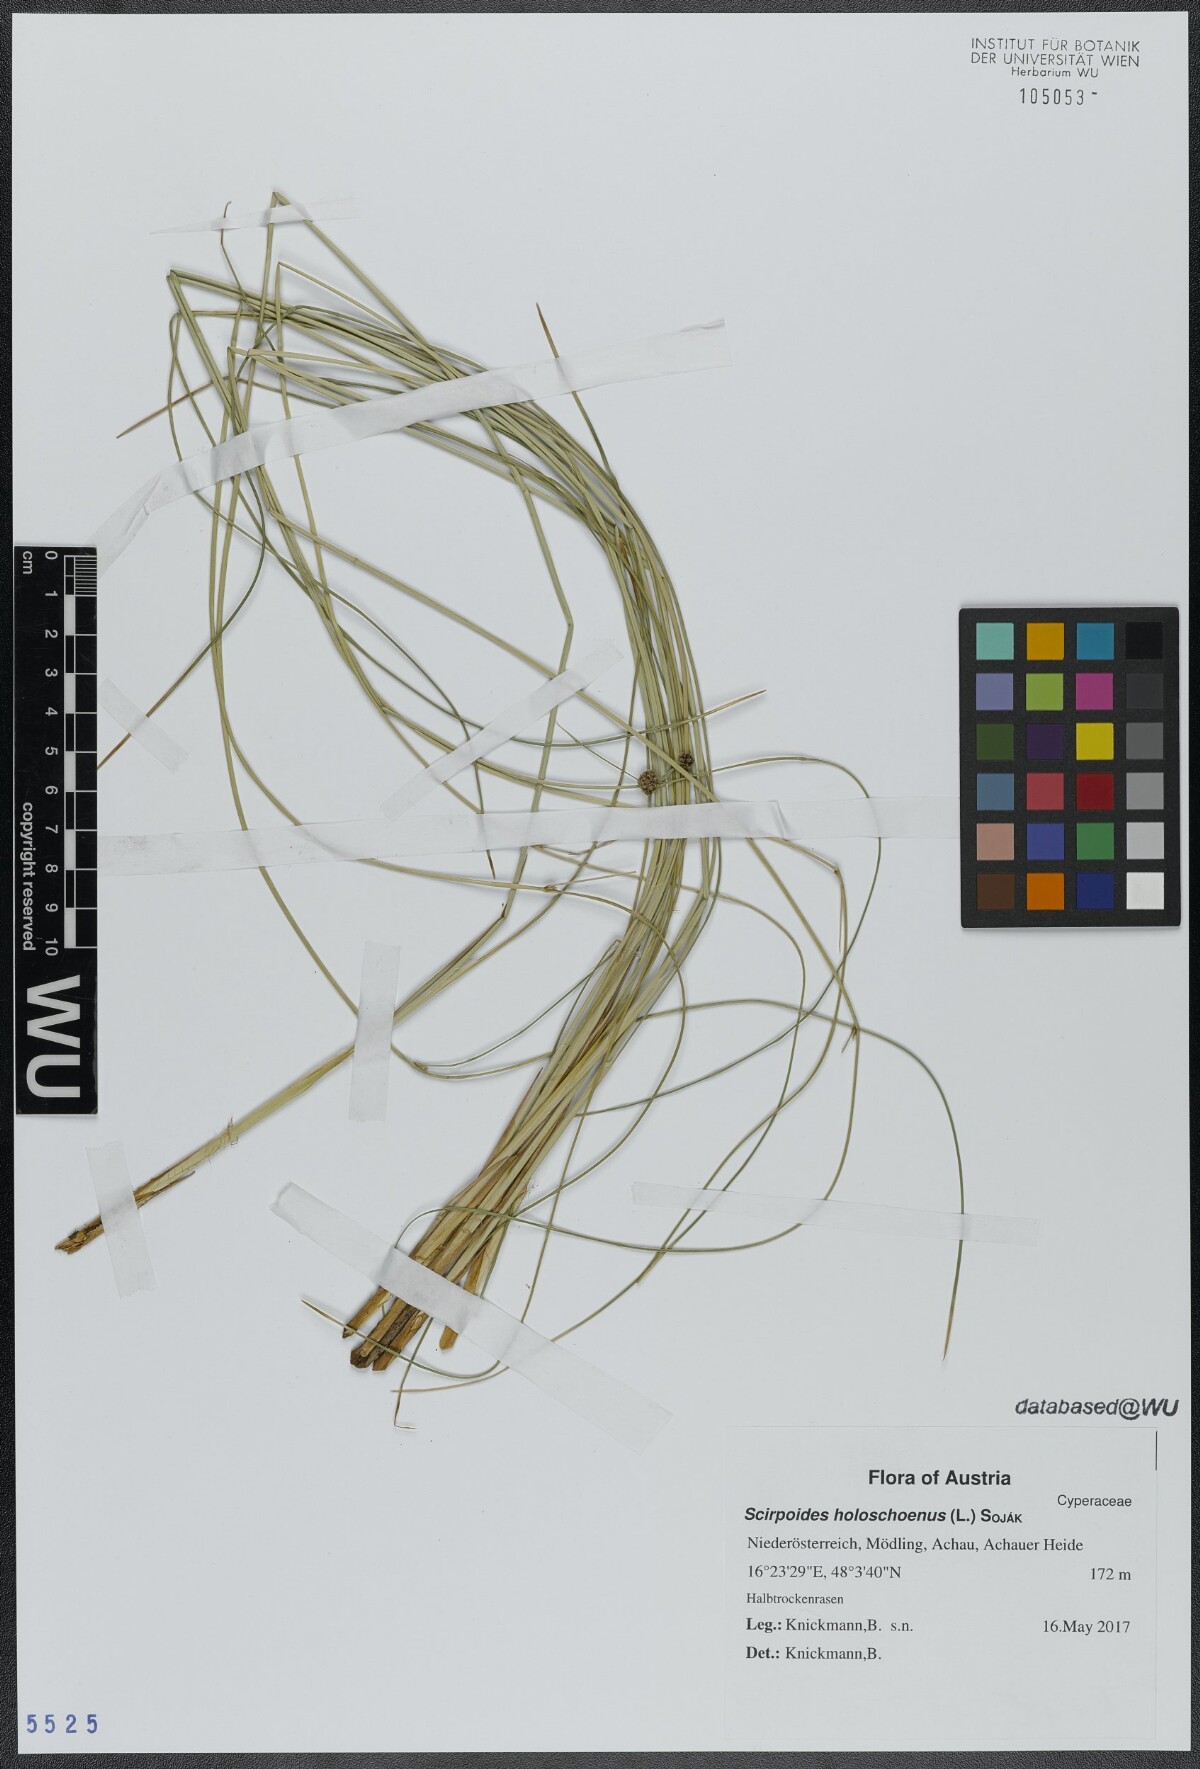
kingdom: Plantae
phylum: Tracheophyta
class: Liliopsida
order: Poales
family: Cyperaceae
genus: Scirpoides
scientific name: Scirpoides holoschoenus
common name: Round-headed club-rush
